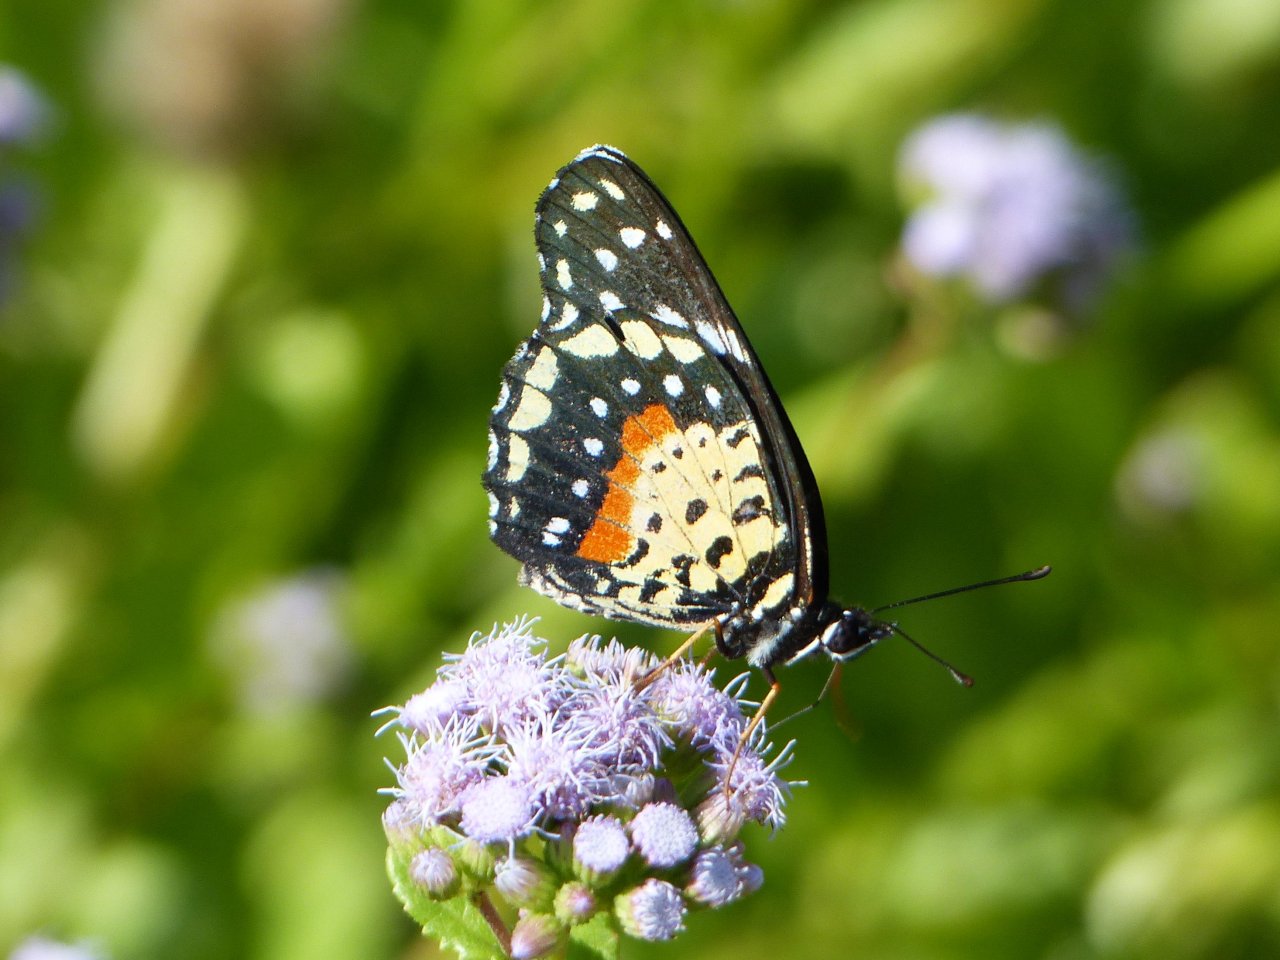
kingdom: Animalia
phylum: Arthropoda
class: Insecta
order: Lepidoptera
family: Nymphalidae
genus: Chlosyne
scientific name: Chlosyne janais
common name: Crimson Patch
